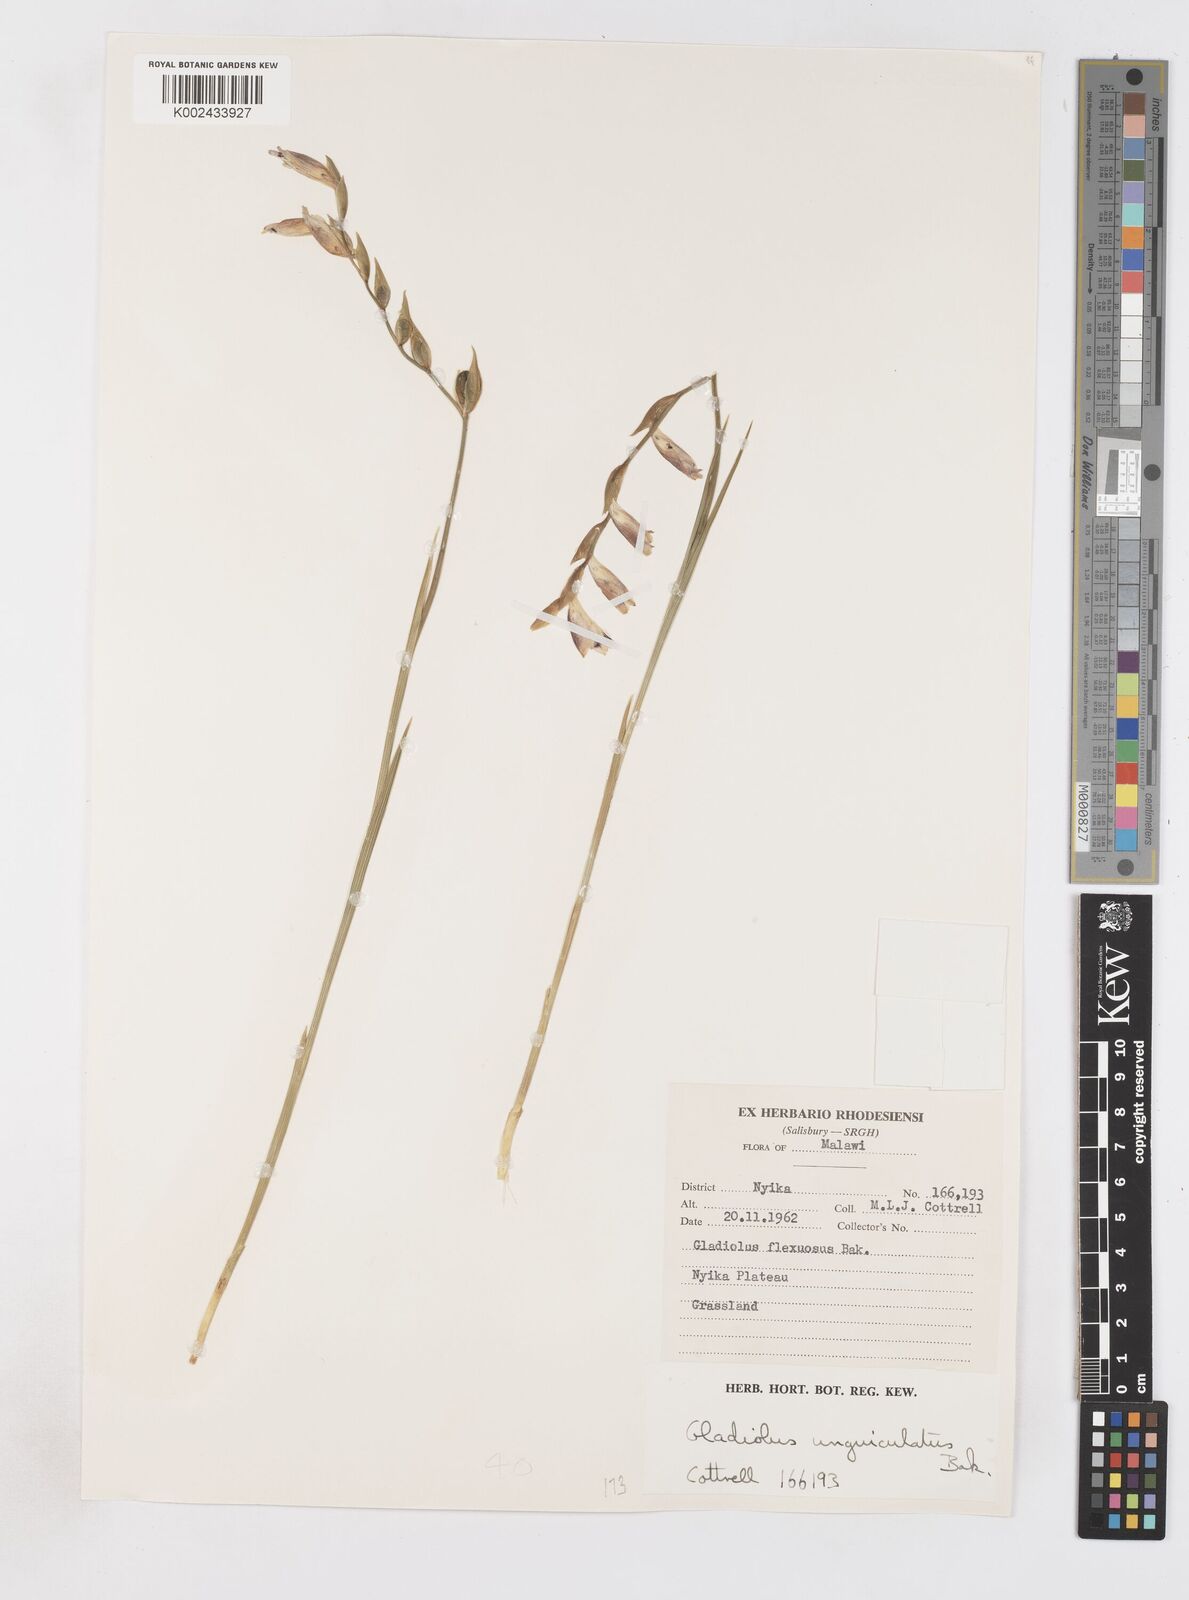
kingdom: Plantae
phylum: Tracheophyta
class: Liliopsida
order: Asparagales
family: Iridaceae
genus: Gladiolus
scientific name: Gladiolus atropurpureus
